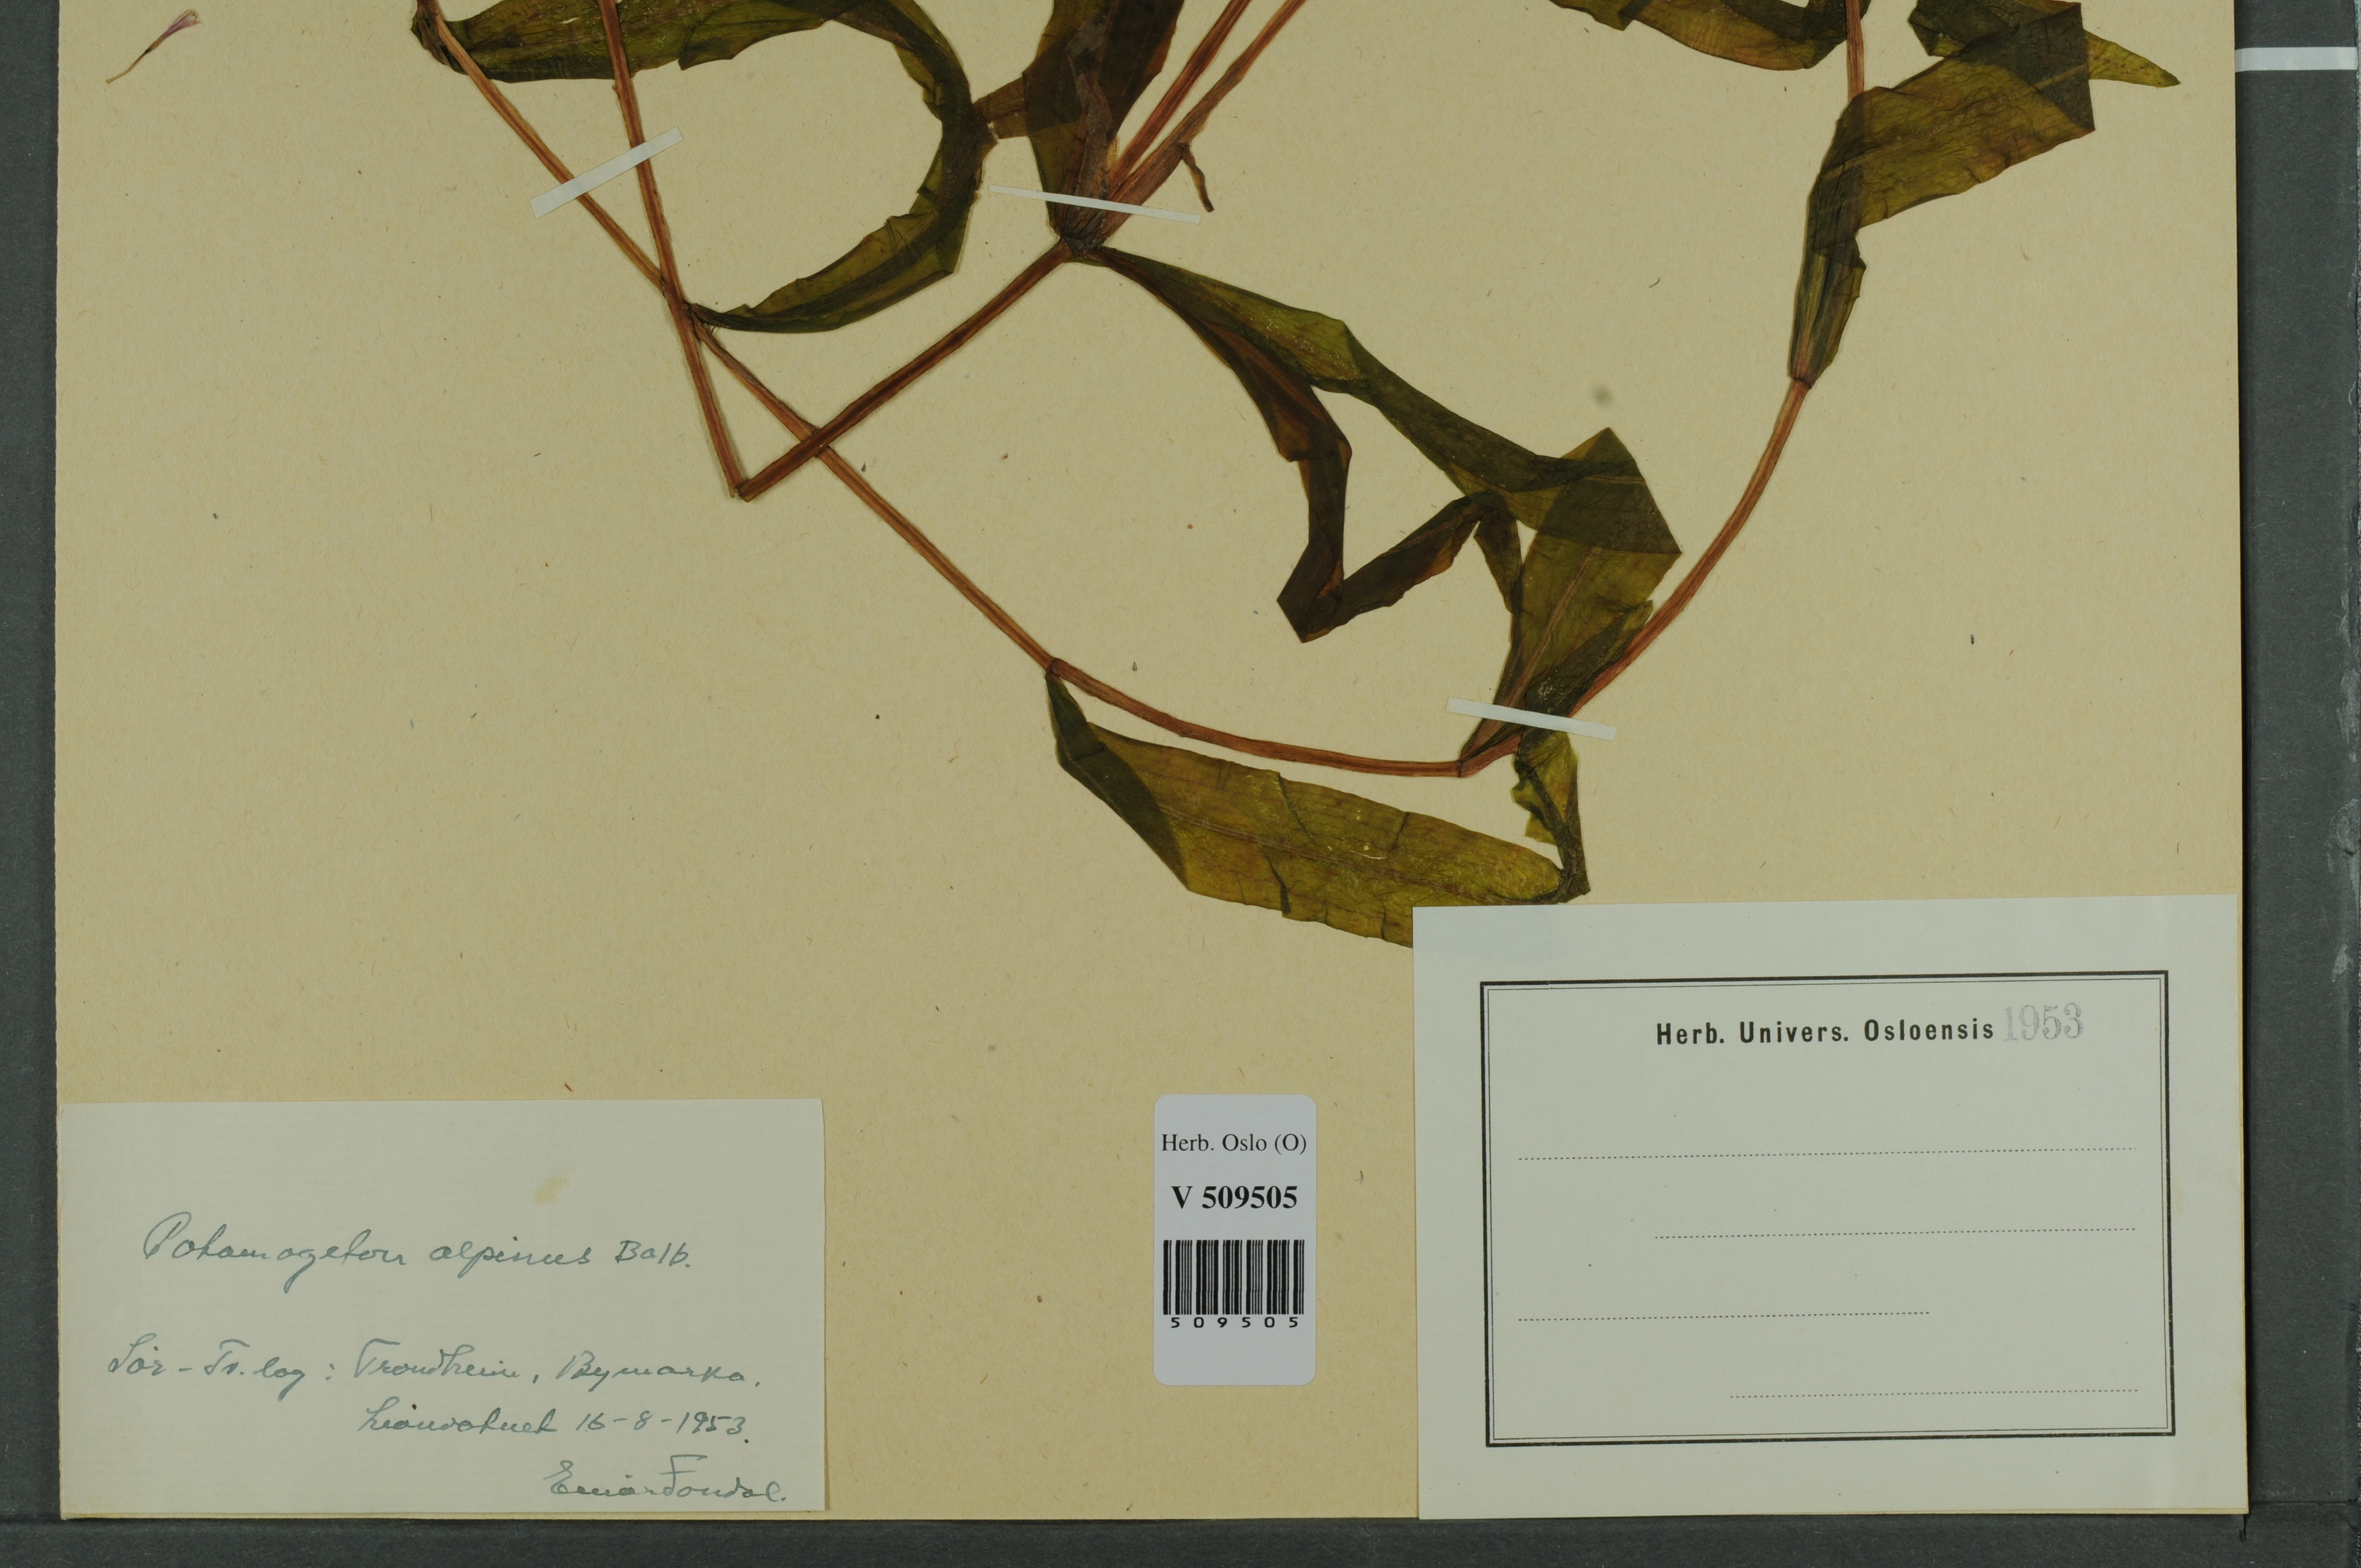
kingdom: Plantae
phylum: Tracheophyta
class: Liliopsida
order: Alismatales
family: Potamogetonaceae
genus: Potamogeton
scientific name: Potamogeton alpinus
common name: Red pondweed
